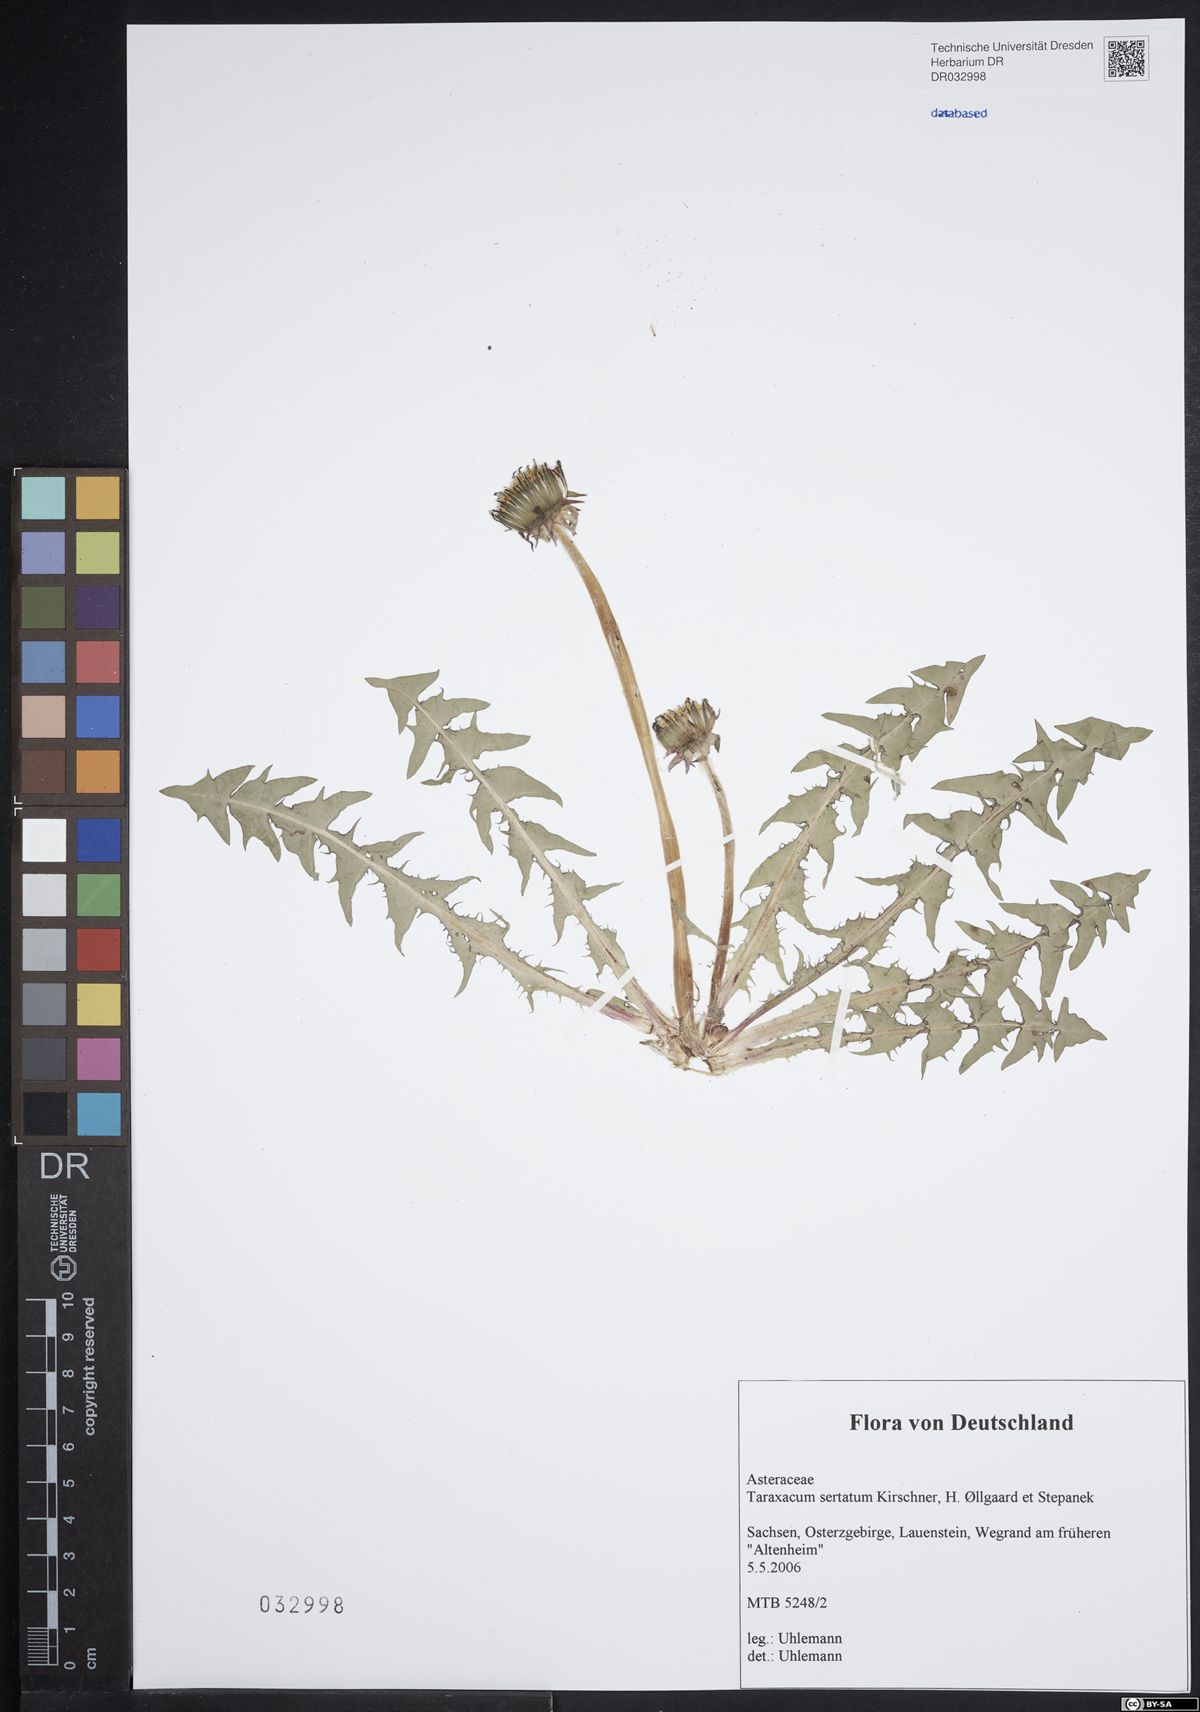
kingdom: Plantae
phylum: Tracheophyta
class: Magnoliopsida
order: Asterales
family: Asteraceae
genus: Taraxacum
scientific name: Taraxacum sertatum
